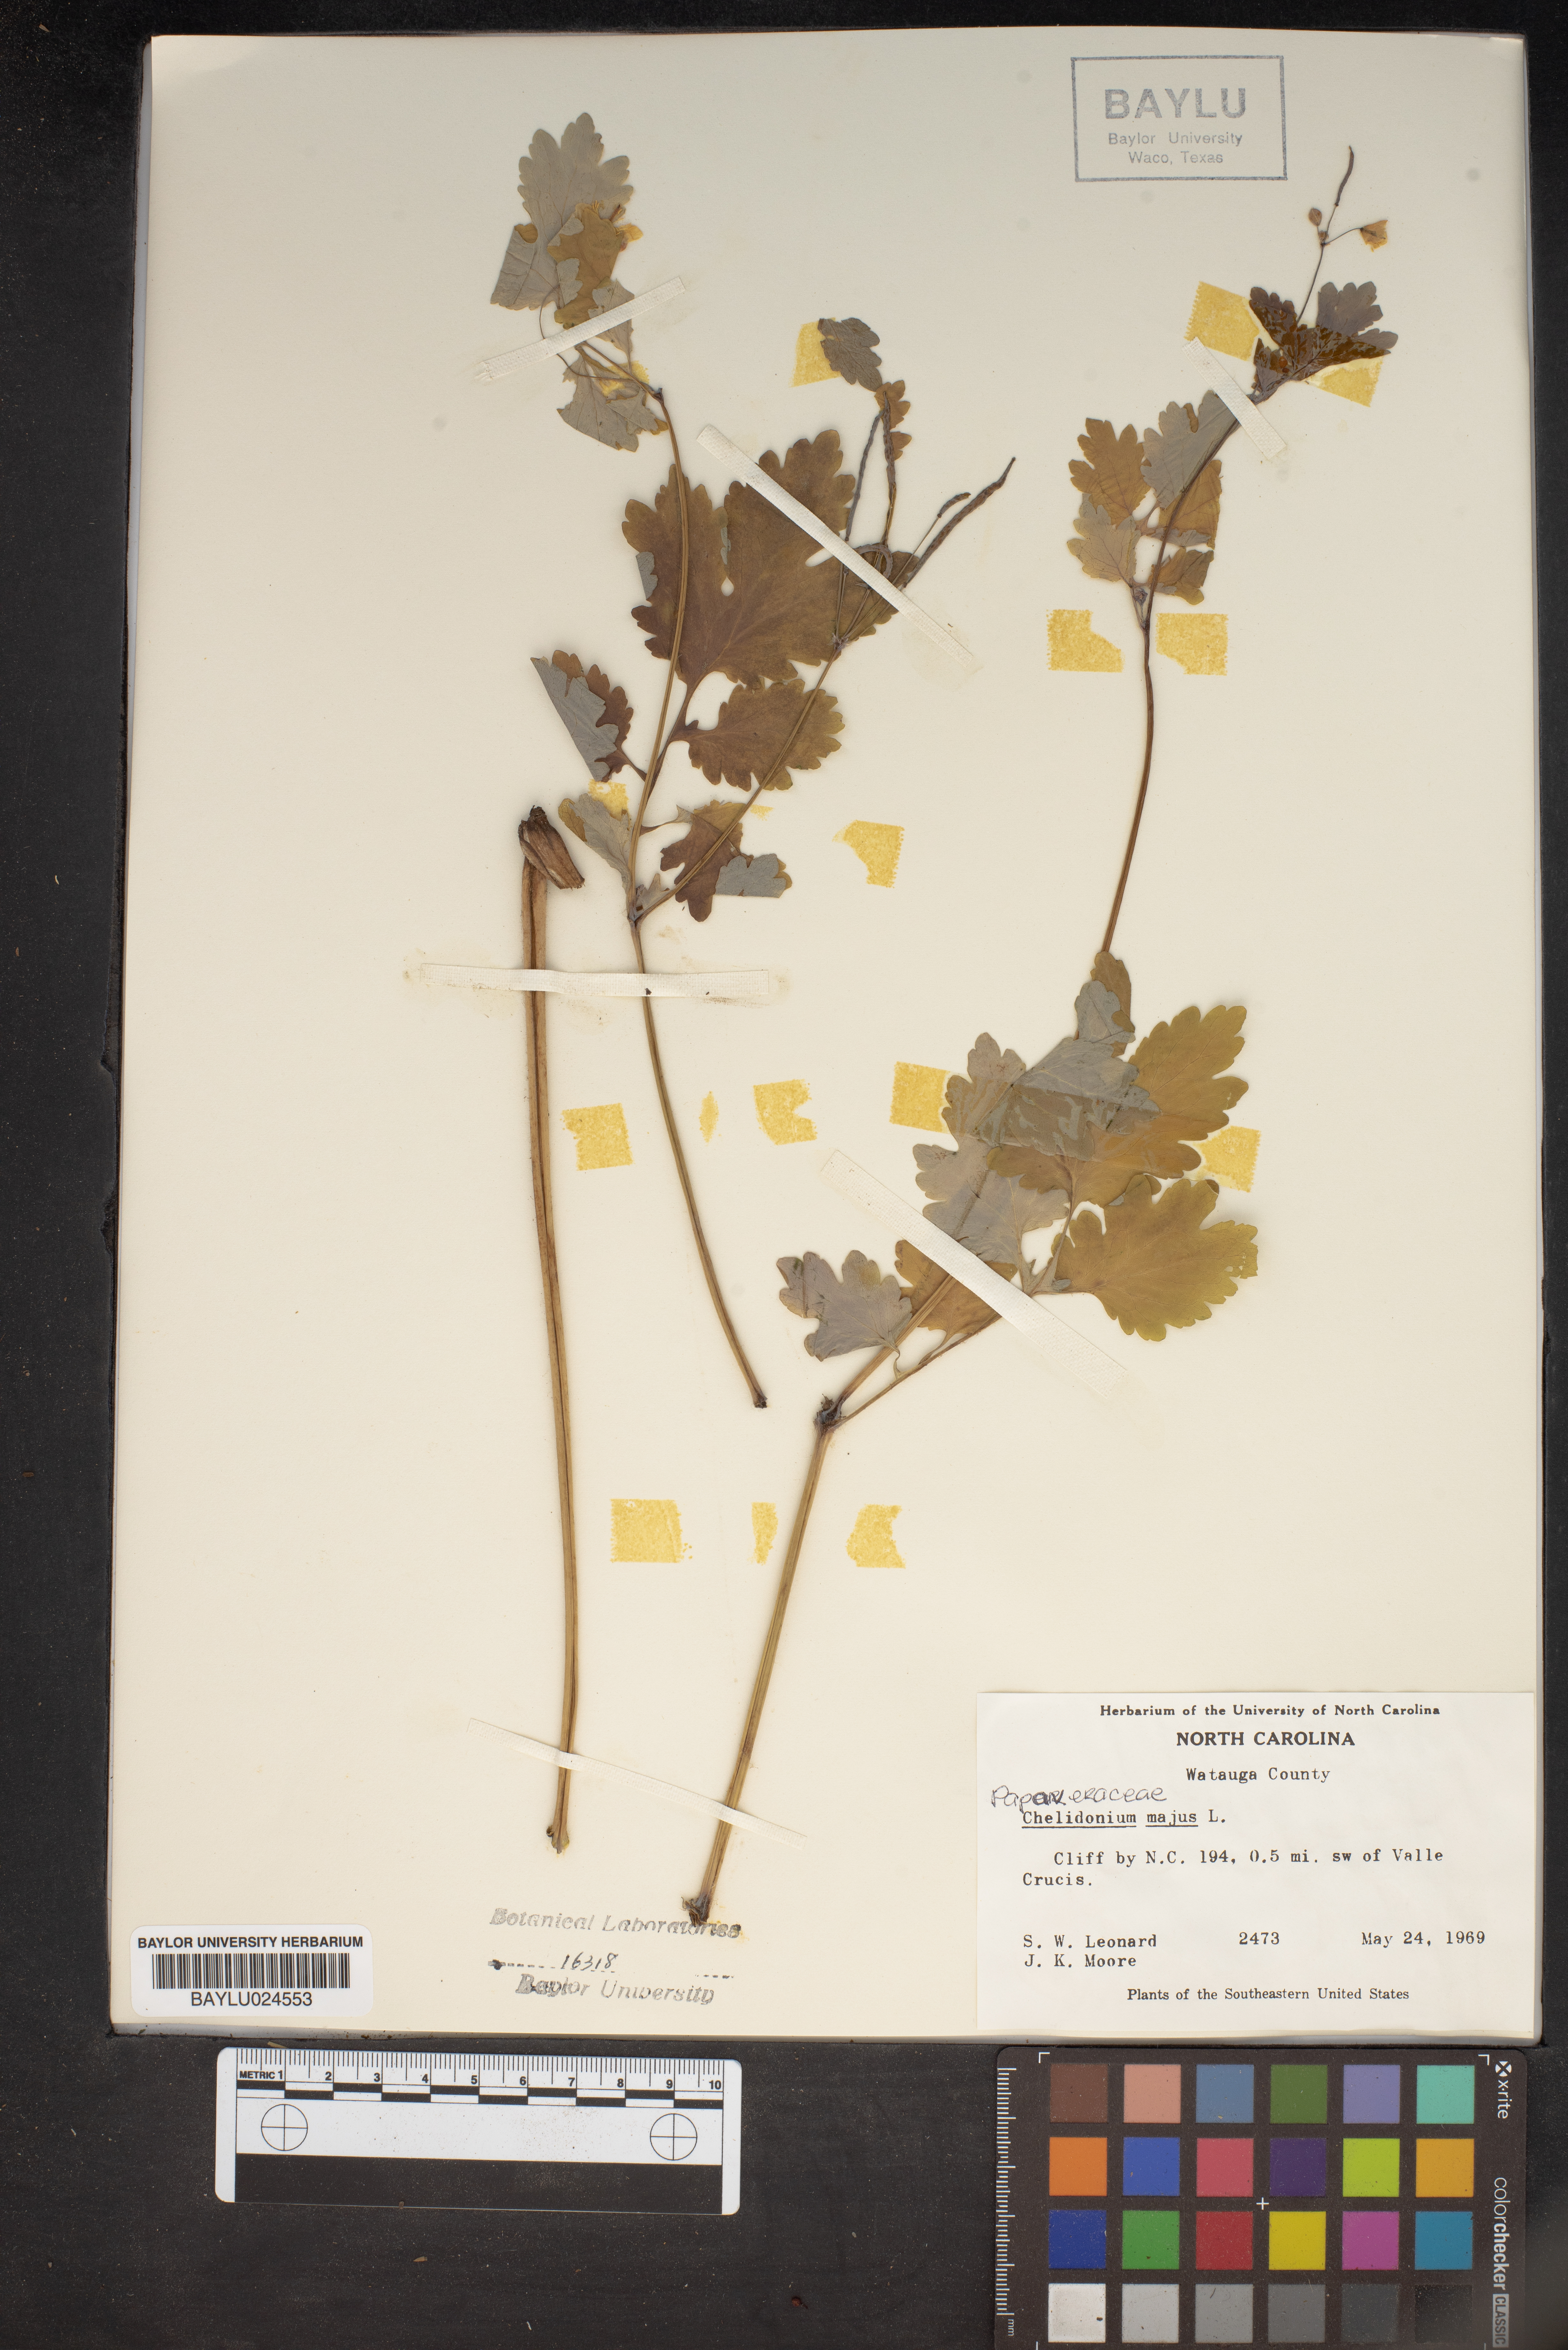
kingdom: Plantae
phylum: Tracheophyta
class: Magnoliopsida
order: Ranunculales
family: Papaveraceae
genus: Chelidonium
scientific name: Chelidonium majus
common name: Greater celandine
